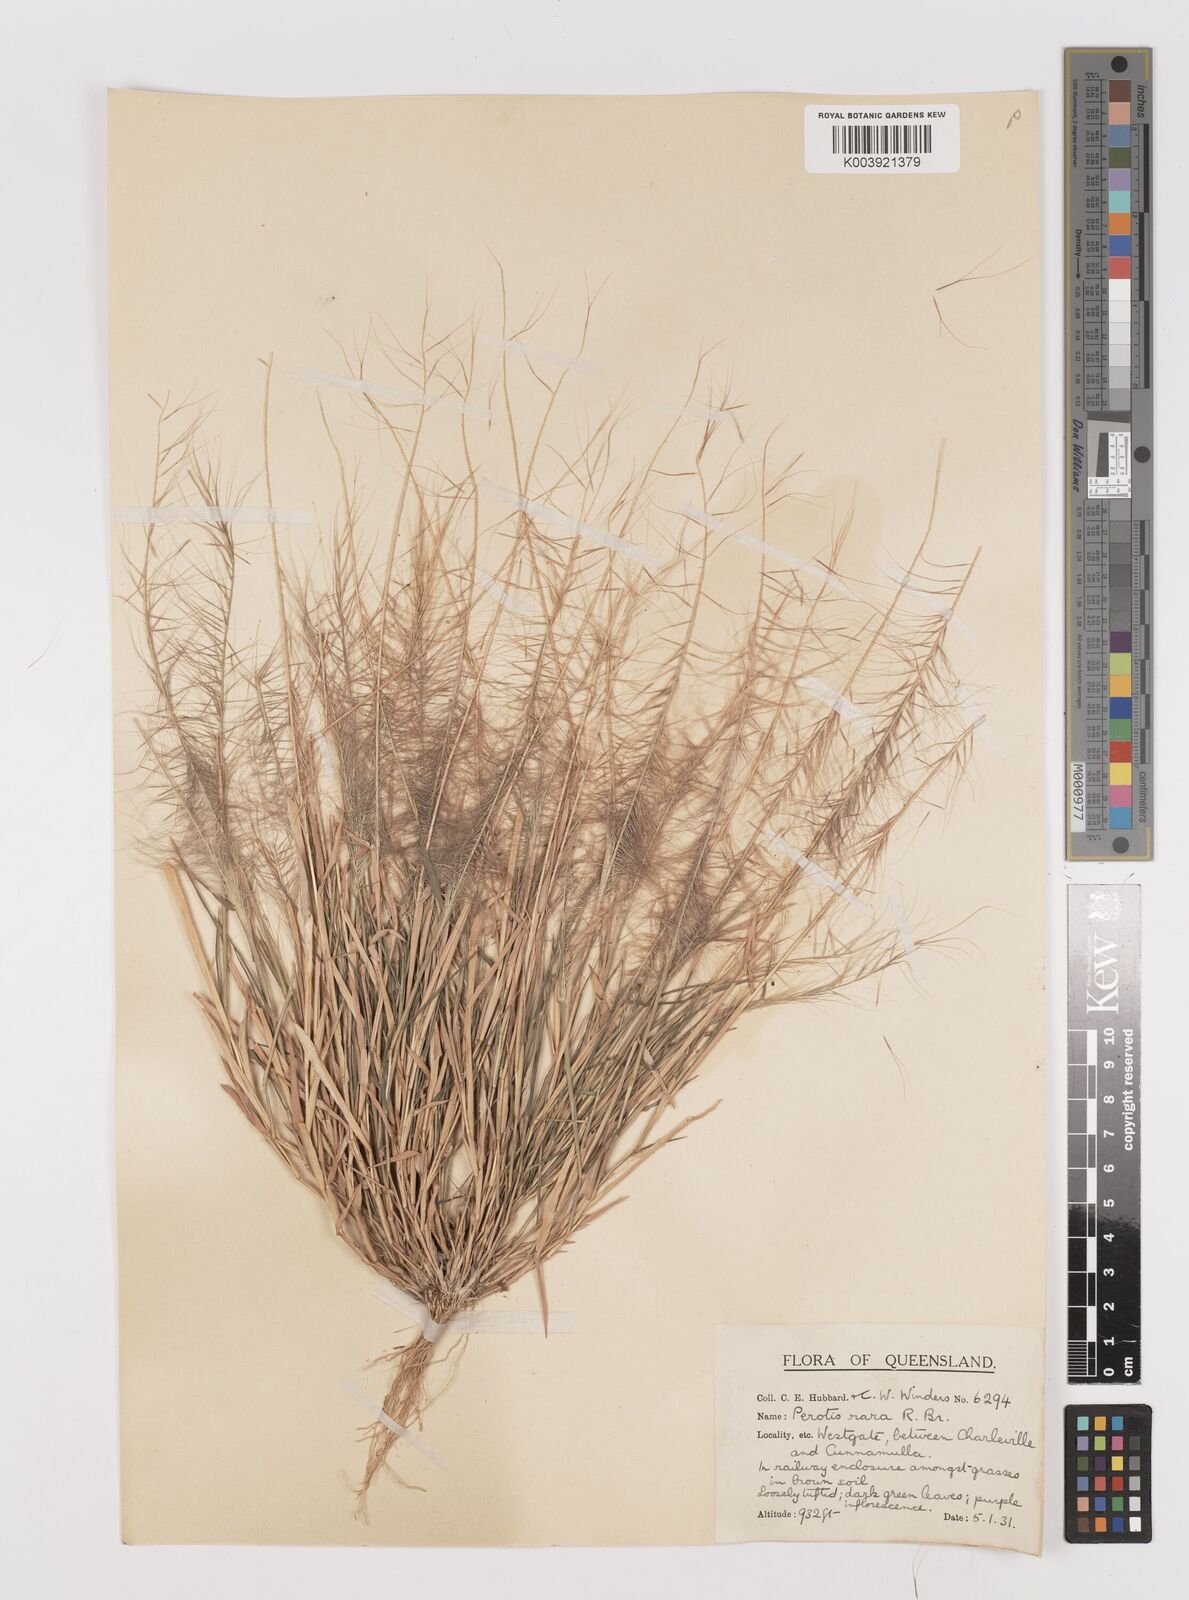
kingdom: Plantae
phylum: Tracheophyta
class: Liliopsida
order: Poales
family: Poaceae
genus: Perotis
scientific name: Perotis rara
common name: Comet grass
